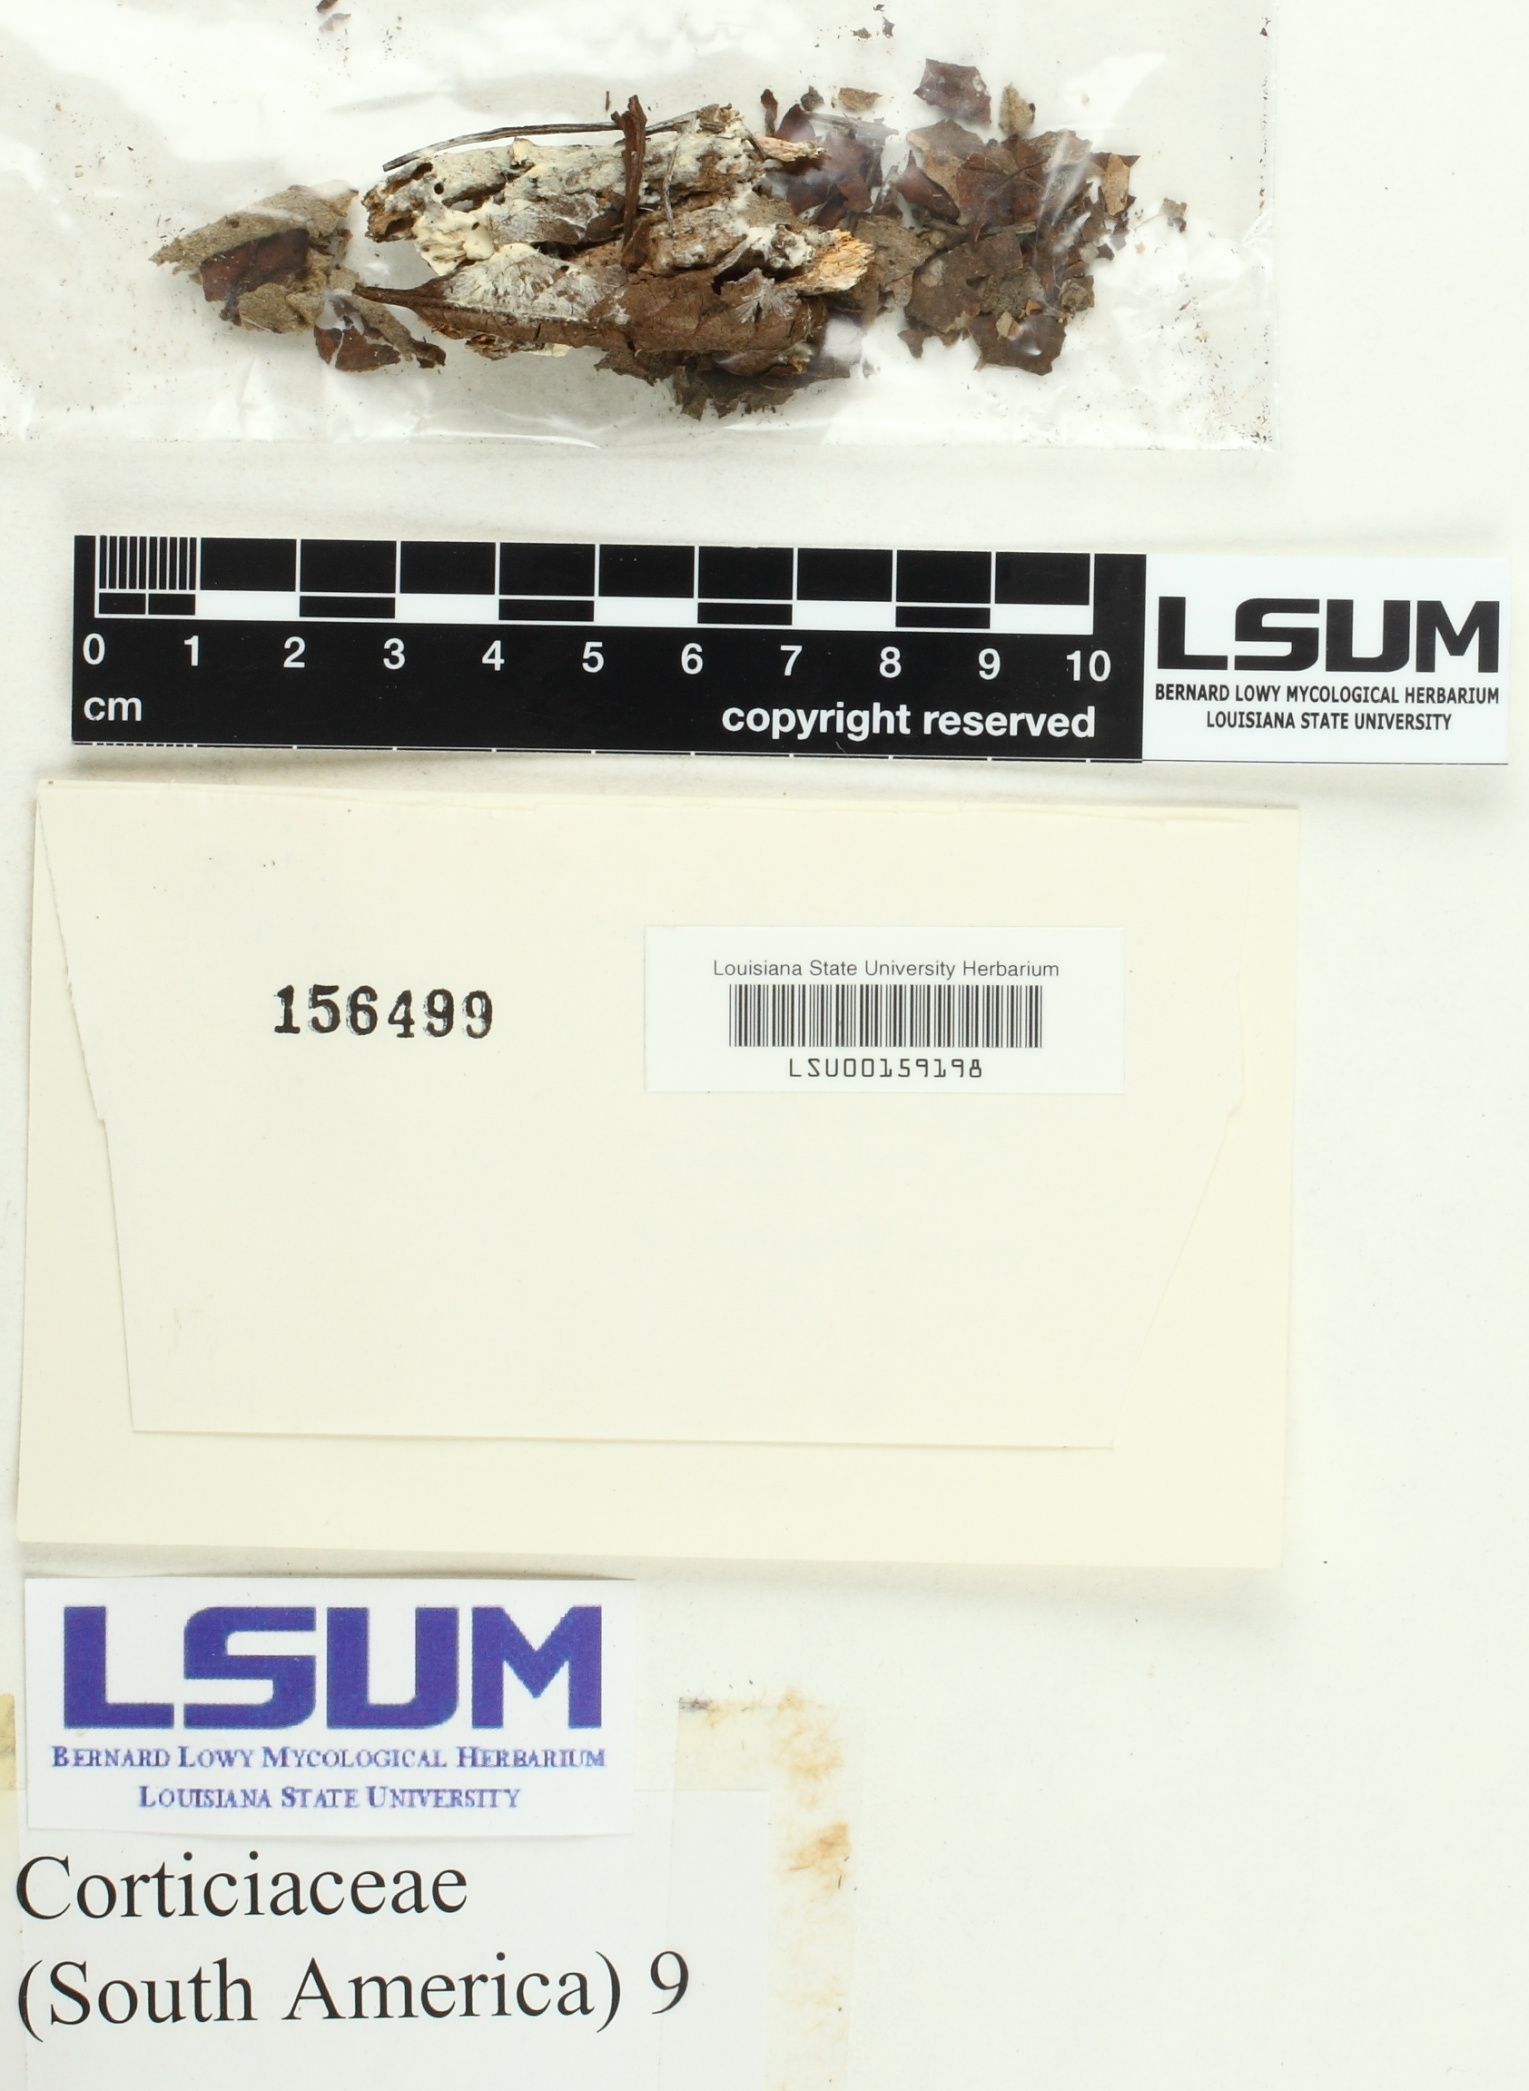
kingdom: Fungi
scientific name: Fungi
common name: Fungi
